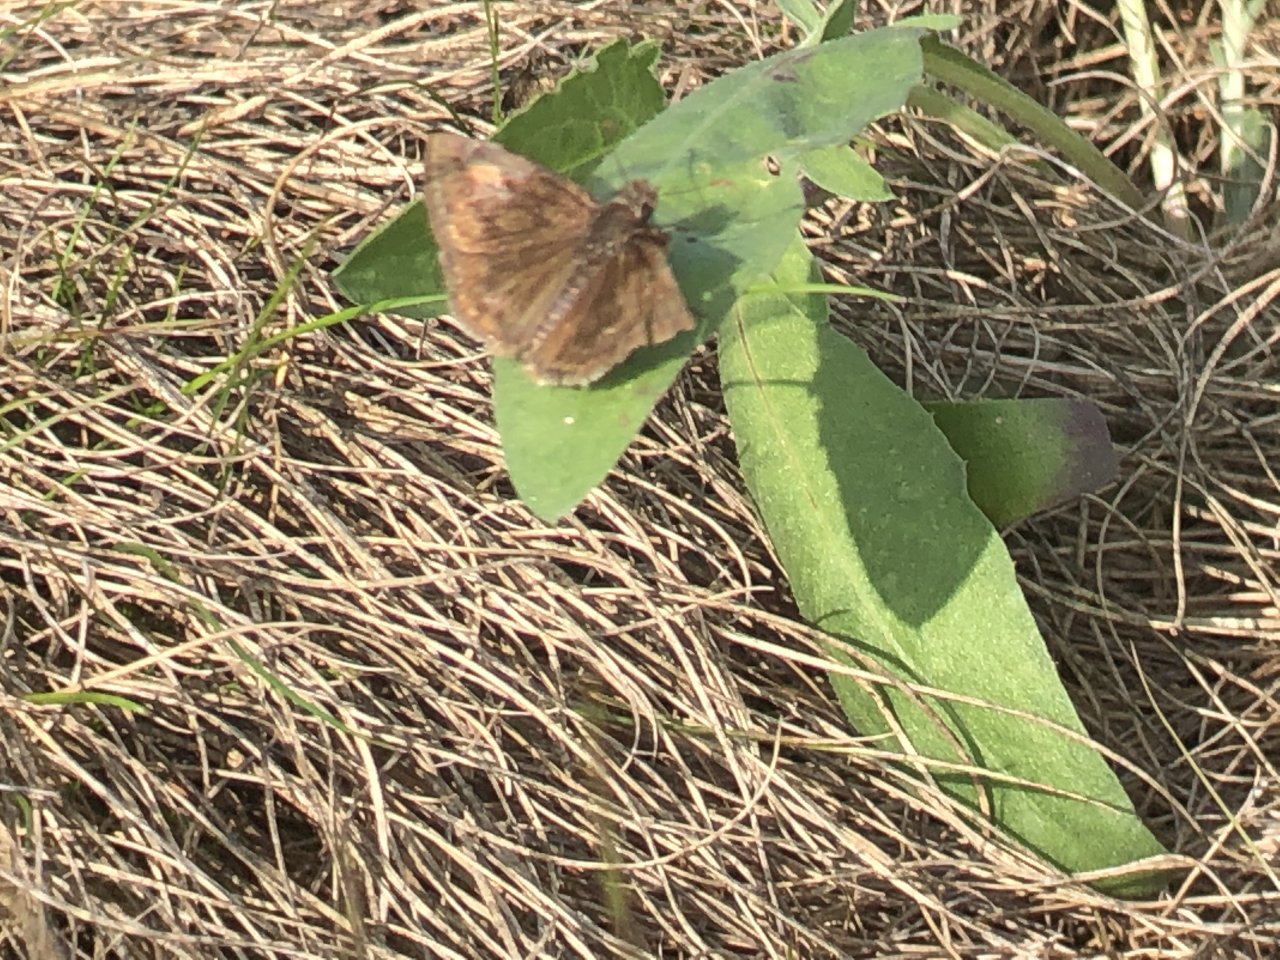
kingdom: Animalia
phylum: Arthropoda
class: Insecta
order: Lepidoptera
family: Hesperiidae
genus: Gesta
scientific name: Gesta
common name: Wild Indigo Duskywing
